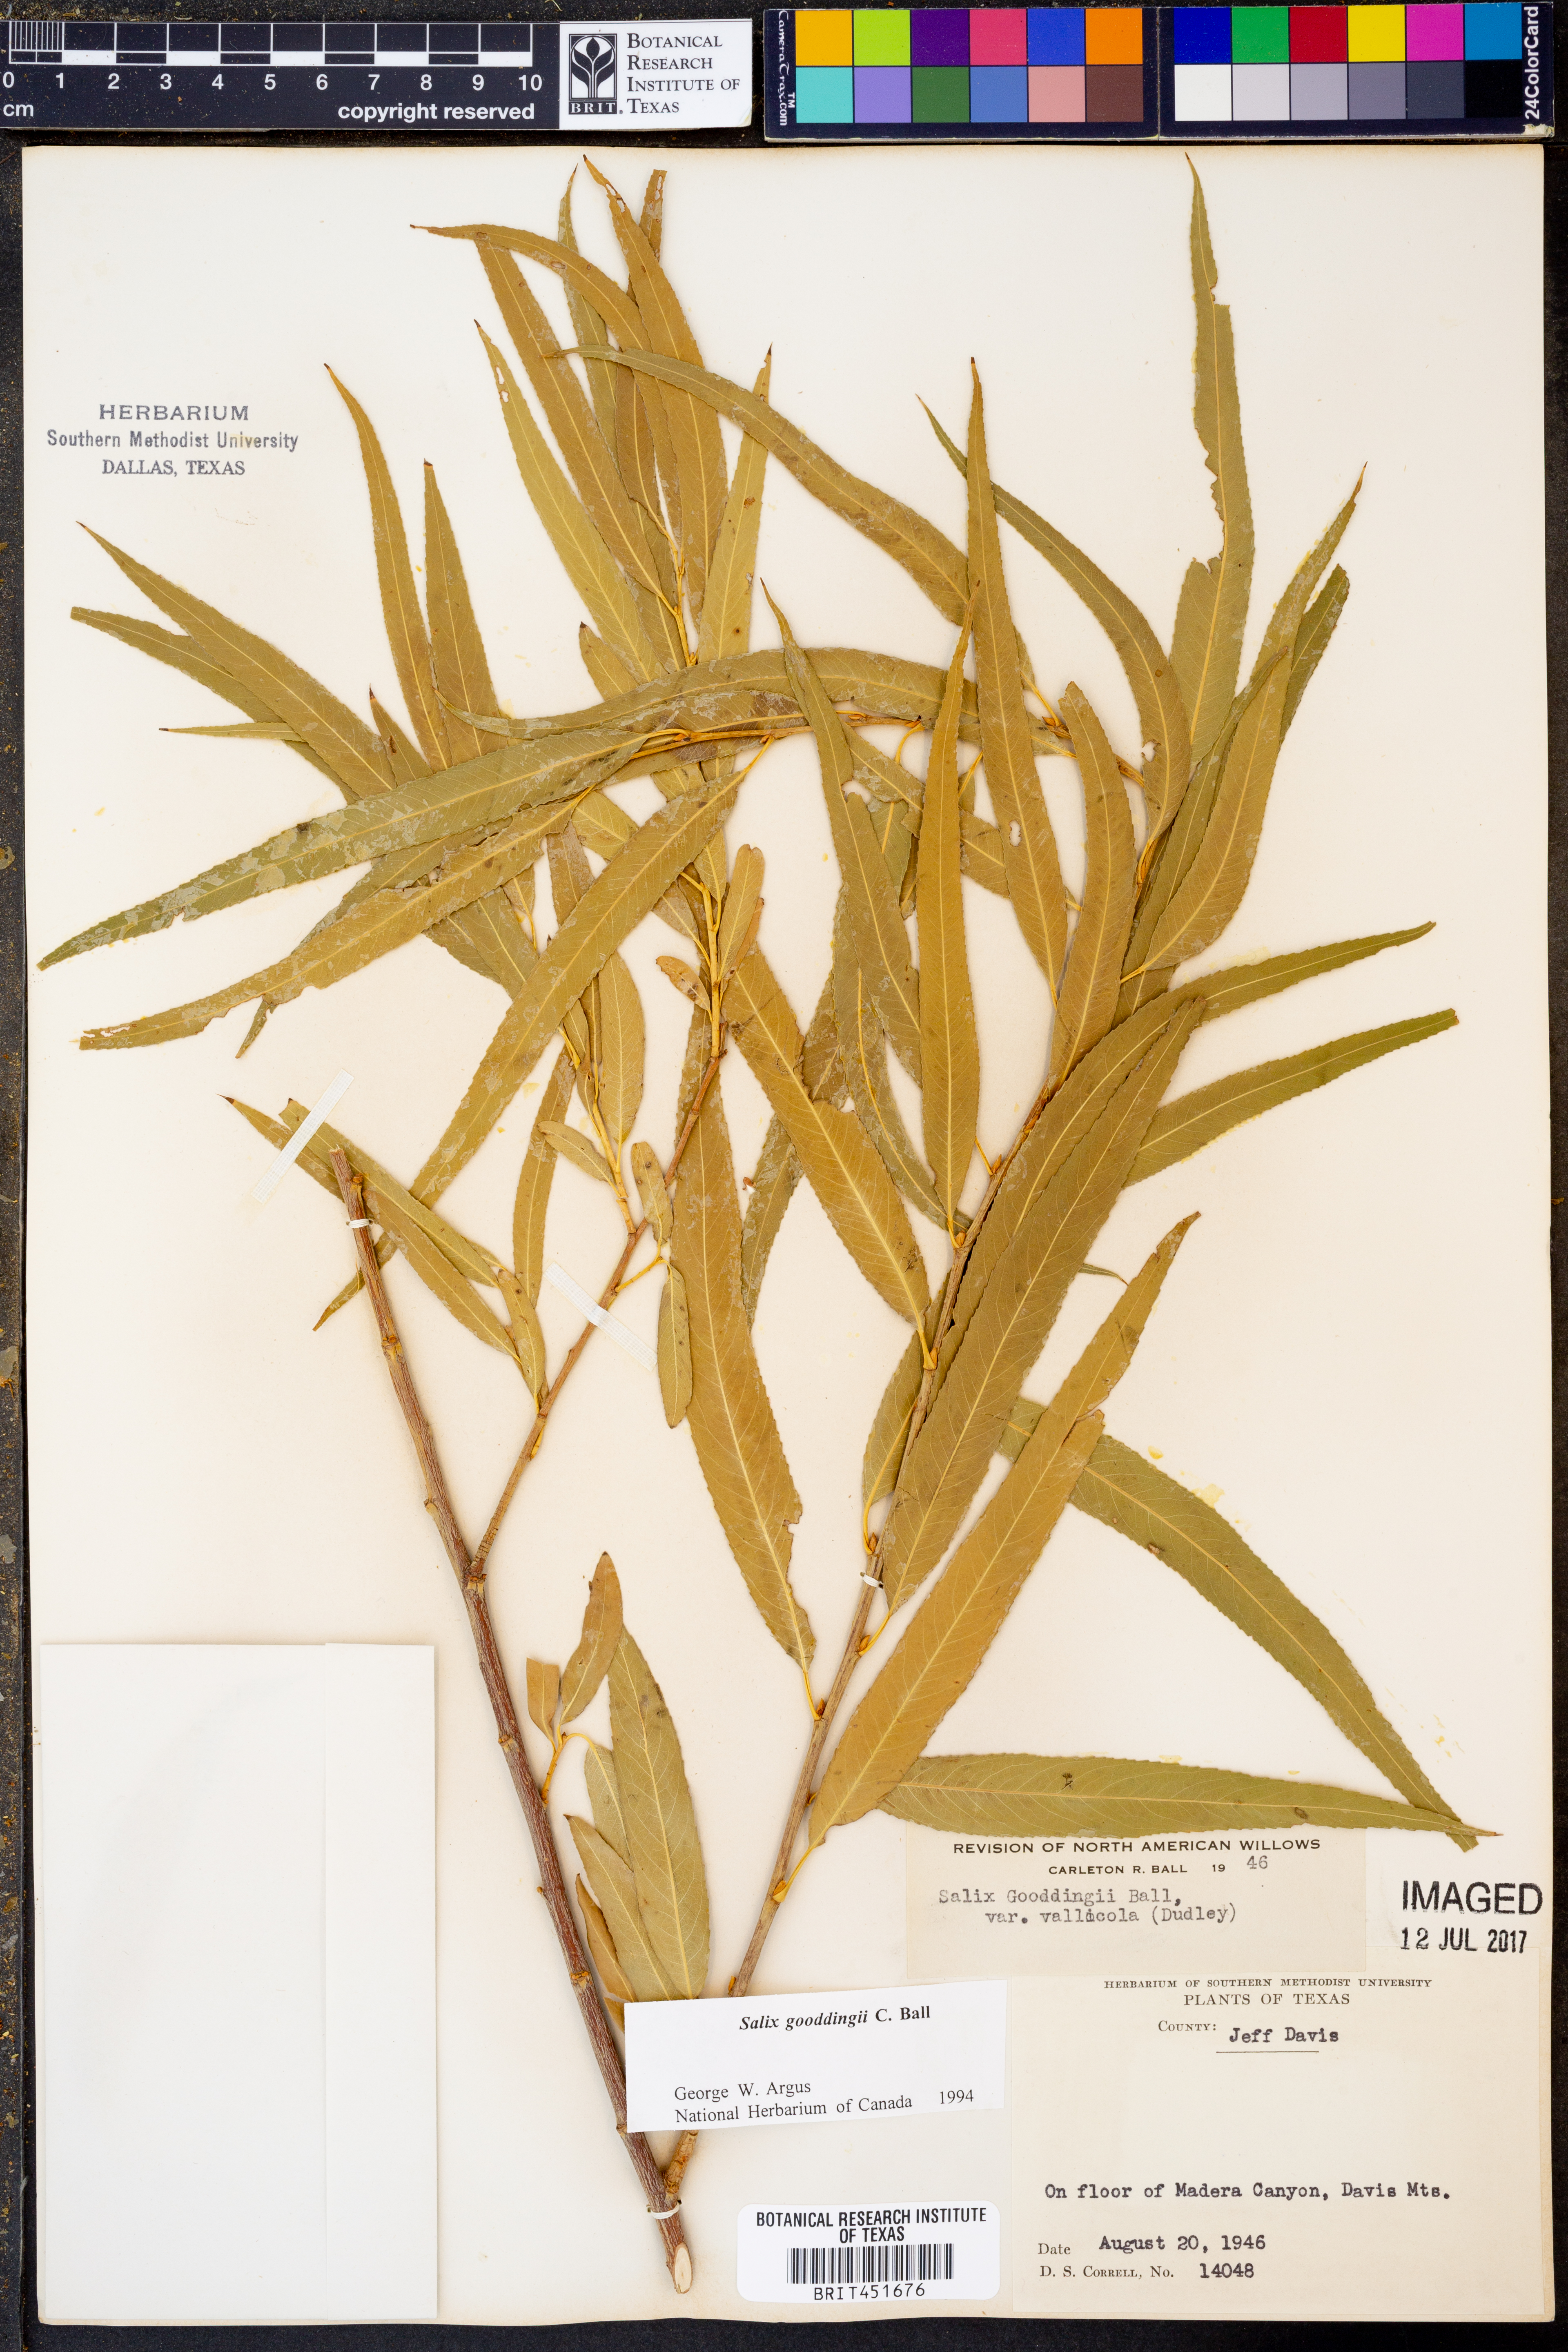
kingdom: Plantae
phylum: Tracheophyta
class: Magnoliopsida
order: Malpighiales
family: Salicaceae
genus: Salix
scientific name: Salix gooddingii
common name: Goodding's willow
